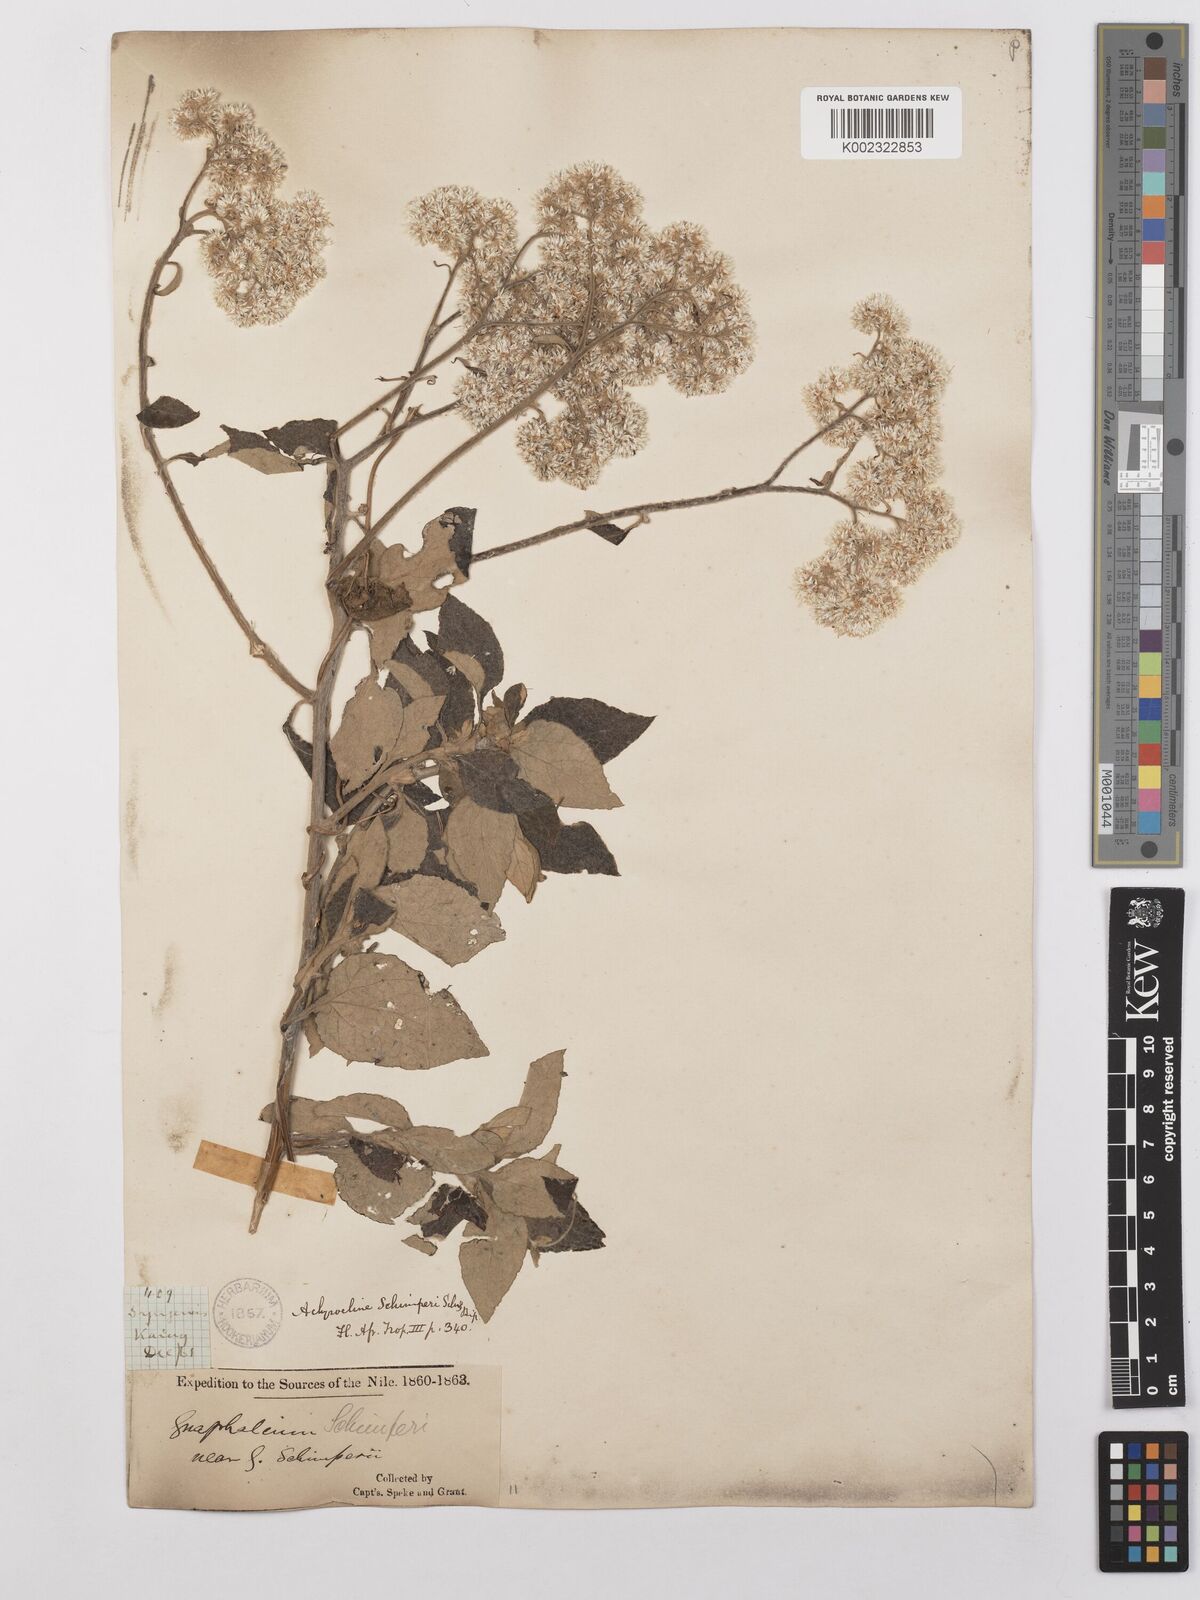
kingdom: Plantae
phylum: Tracheophyta
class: Magnoliopsida
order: Asterales
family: Asteraceae
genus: Helichrysum
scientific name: Helichrysum schimperi
